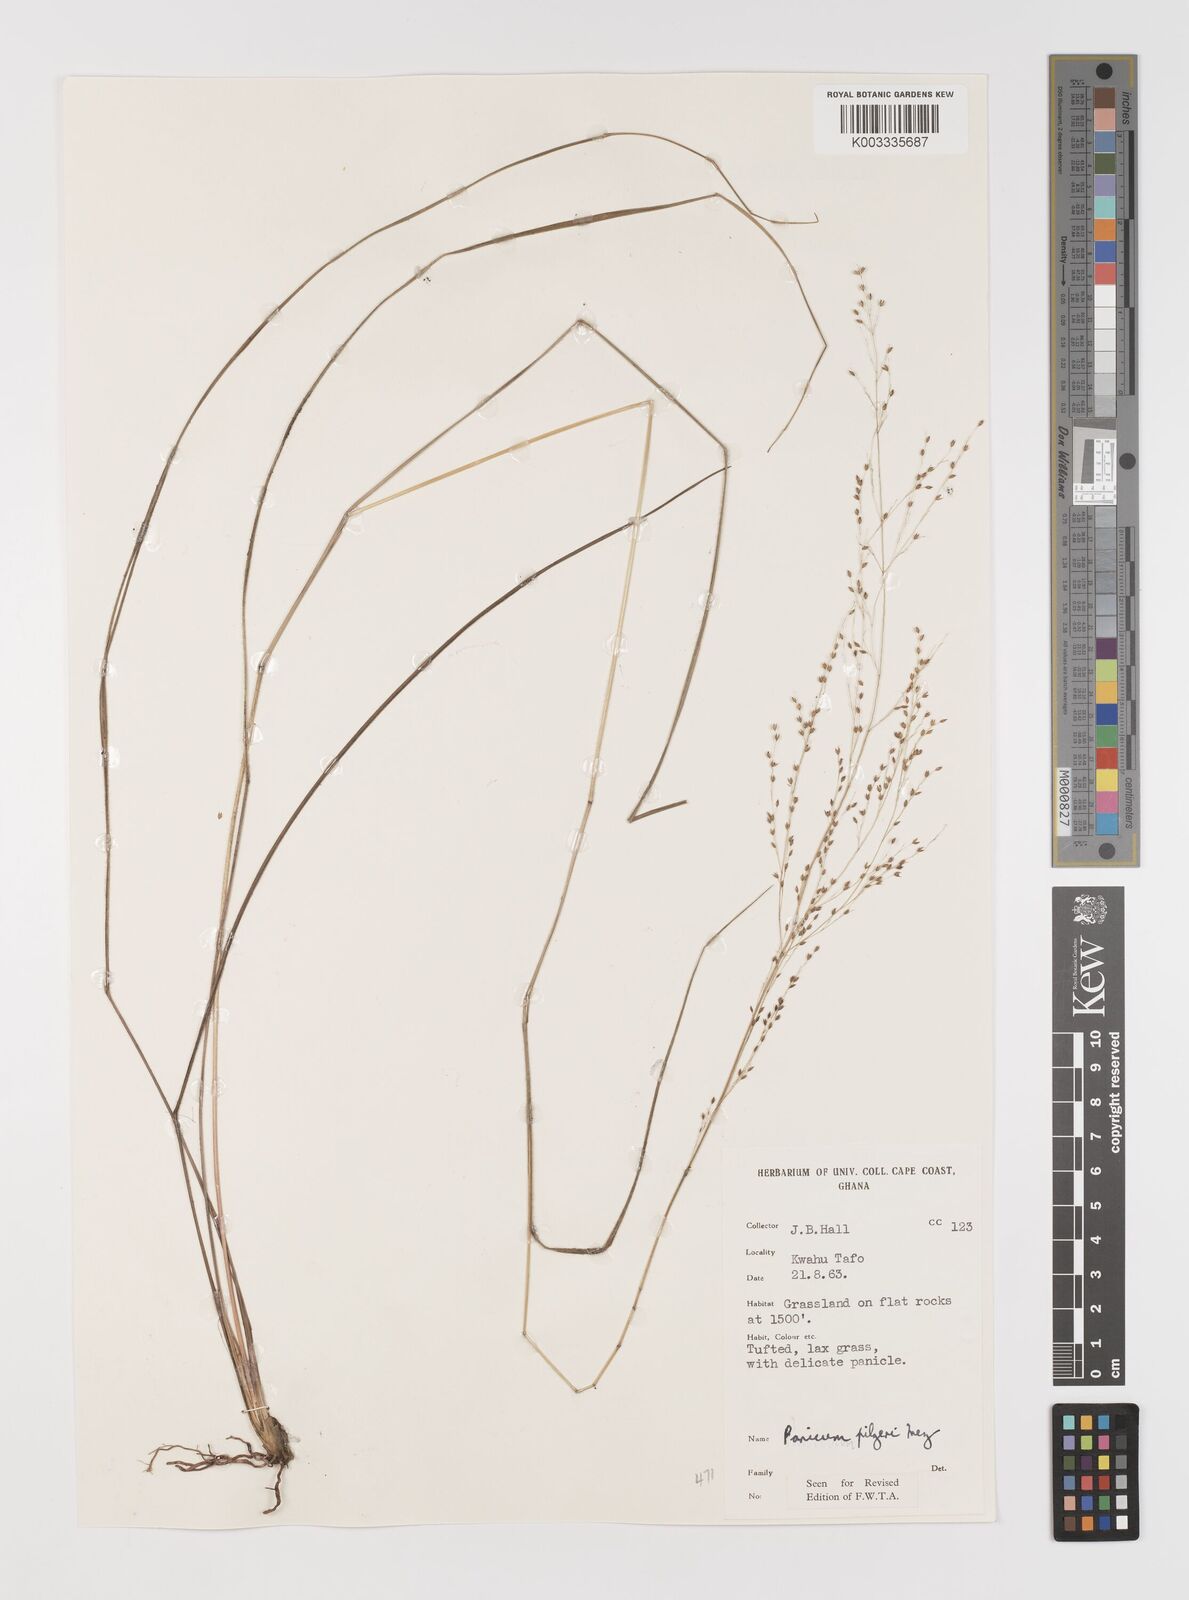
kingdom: Plantae
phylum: Tracheophyta
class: Liliopsida
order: Poales
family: Poaceae
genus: Panicum
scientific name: Panicum
